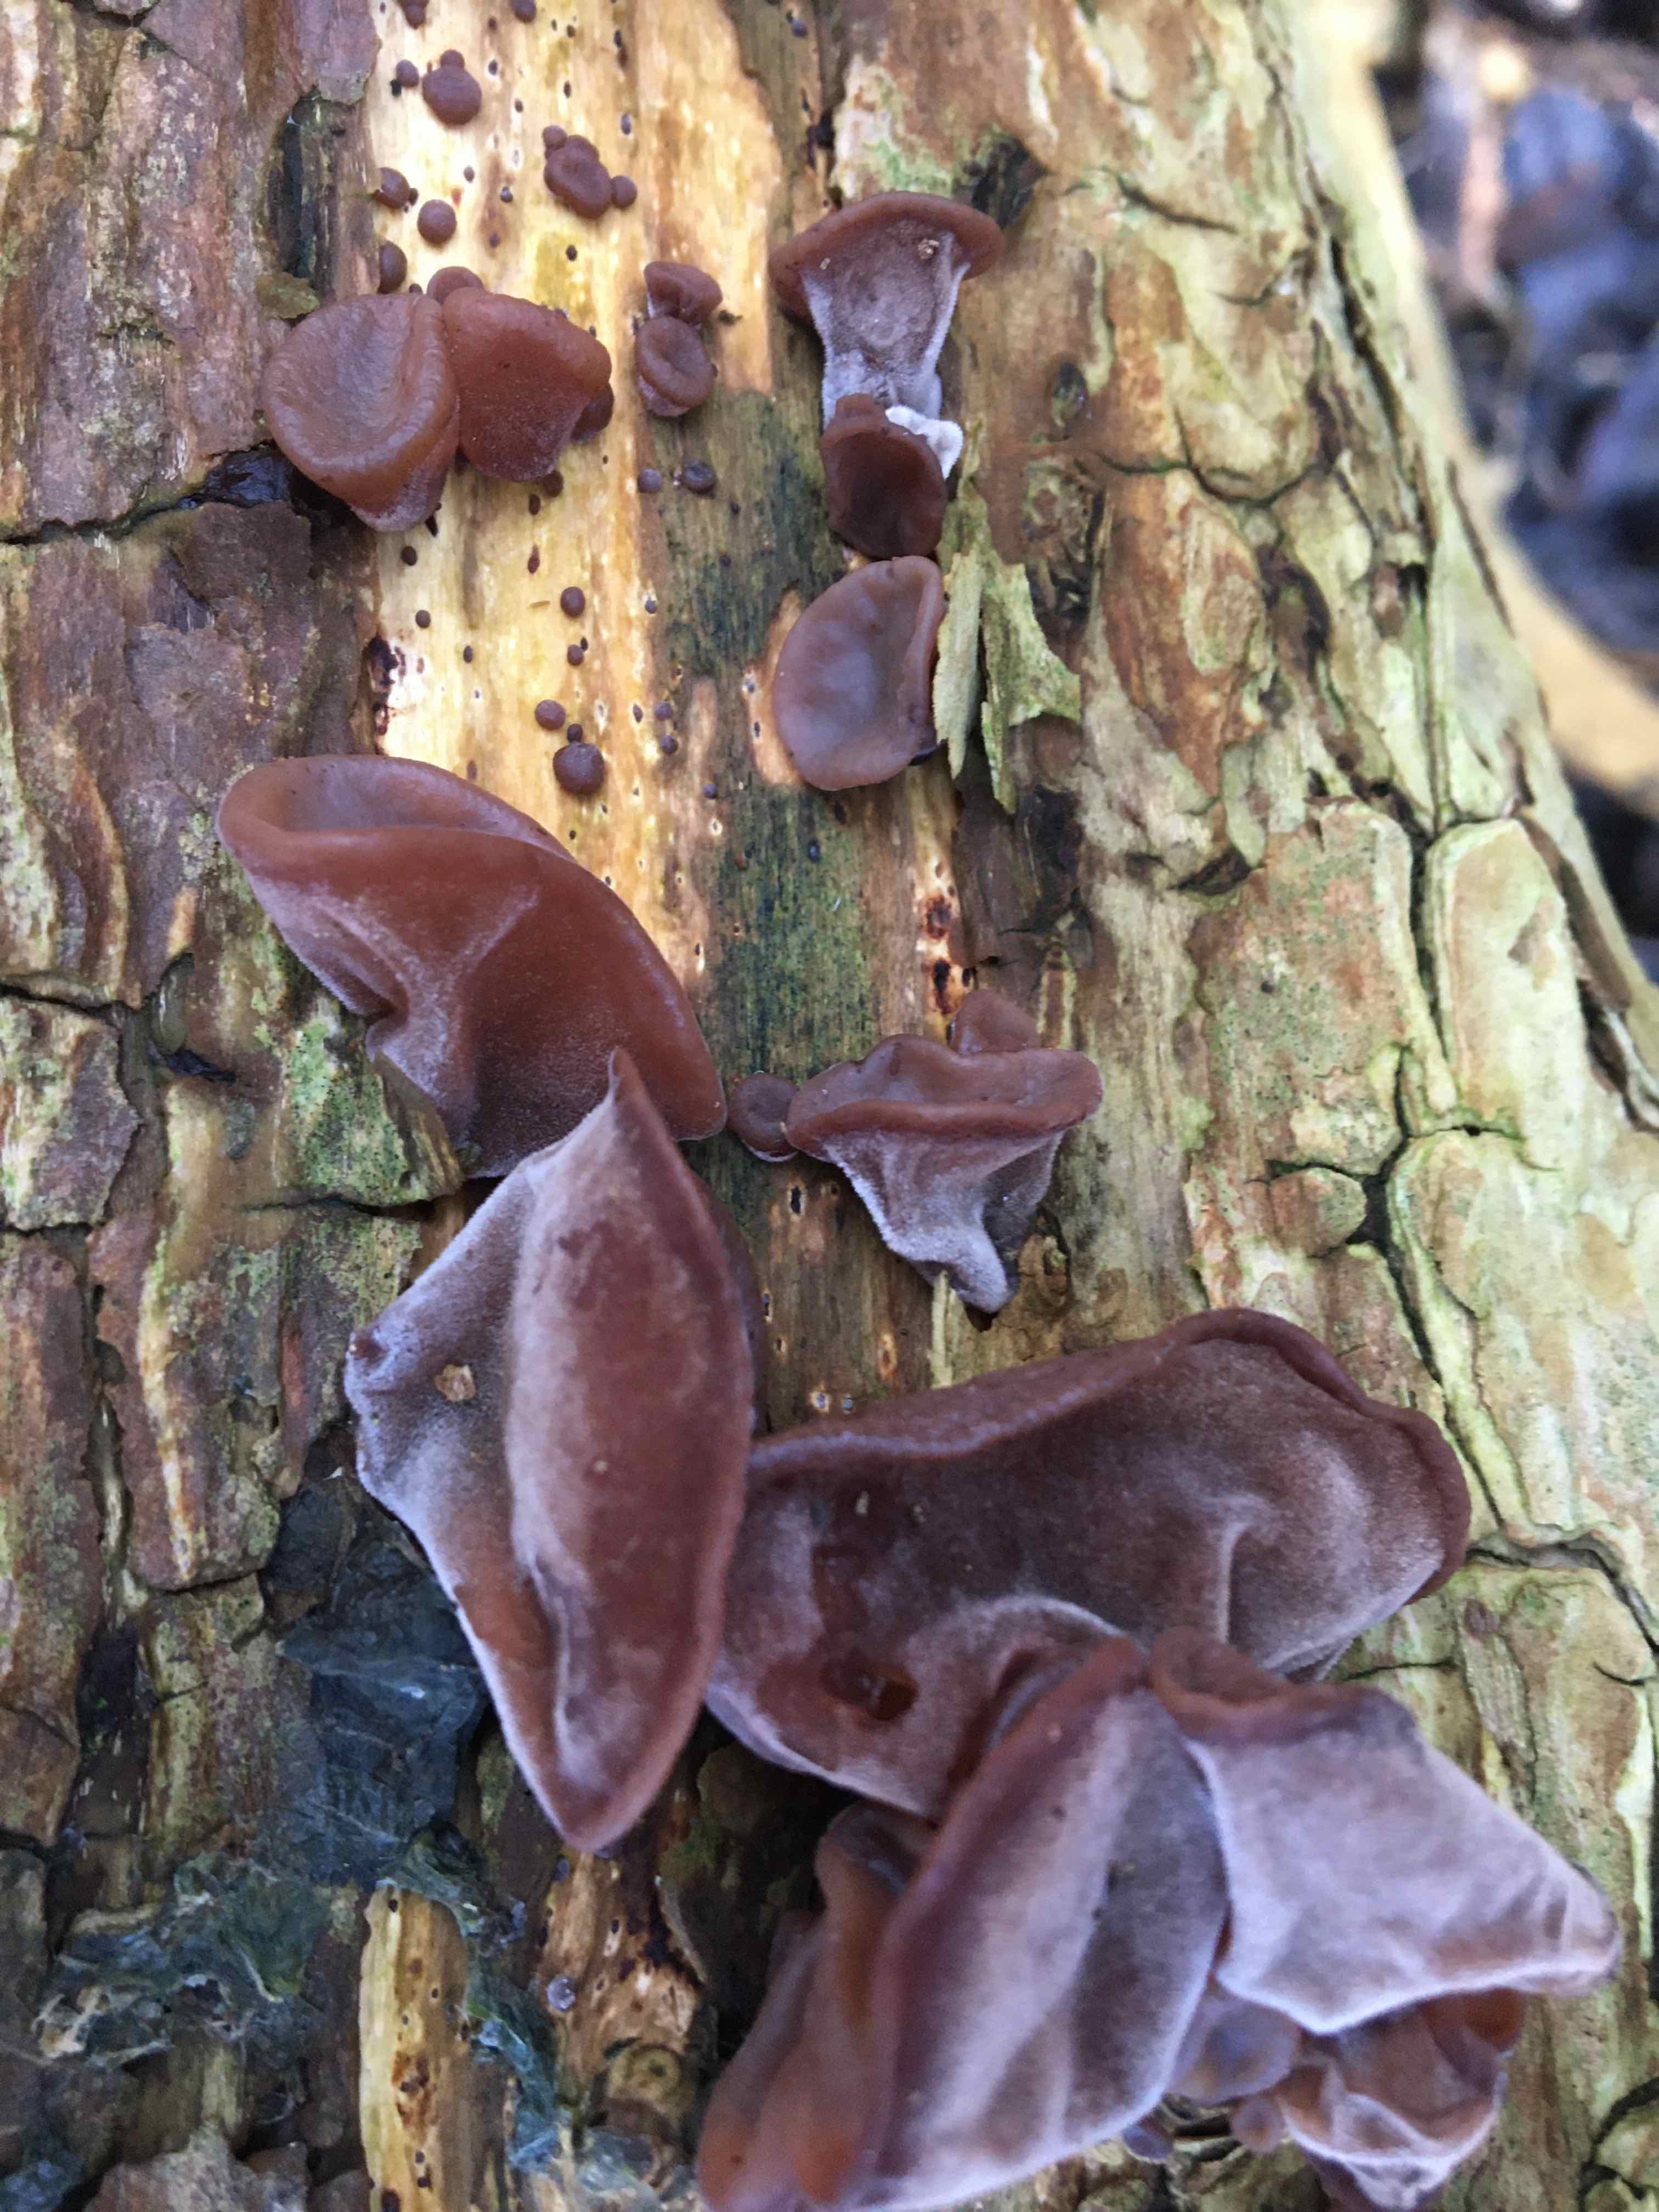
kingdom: Fungi
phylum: Basidiomycota
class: Agaricomycetes
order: Auriculariales
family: Auriculariaceae
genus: Auricularia
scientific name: Auricularia auricula-judae
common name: almindelig judasøre
